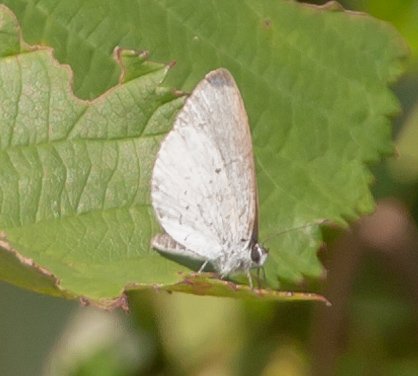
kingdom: Animalia
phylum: Arthropoda
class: Insecta
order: Lepidoptera
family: Lycaenidae
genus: Cyaniris
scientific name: Cyaniris neglecta
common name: Summer Azure
